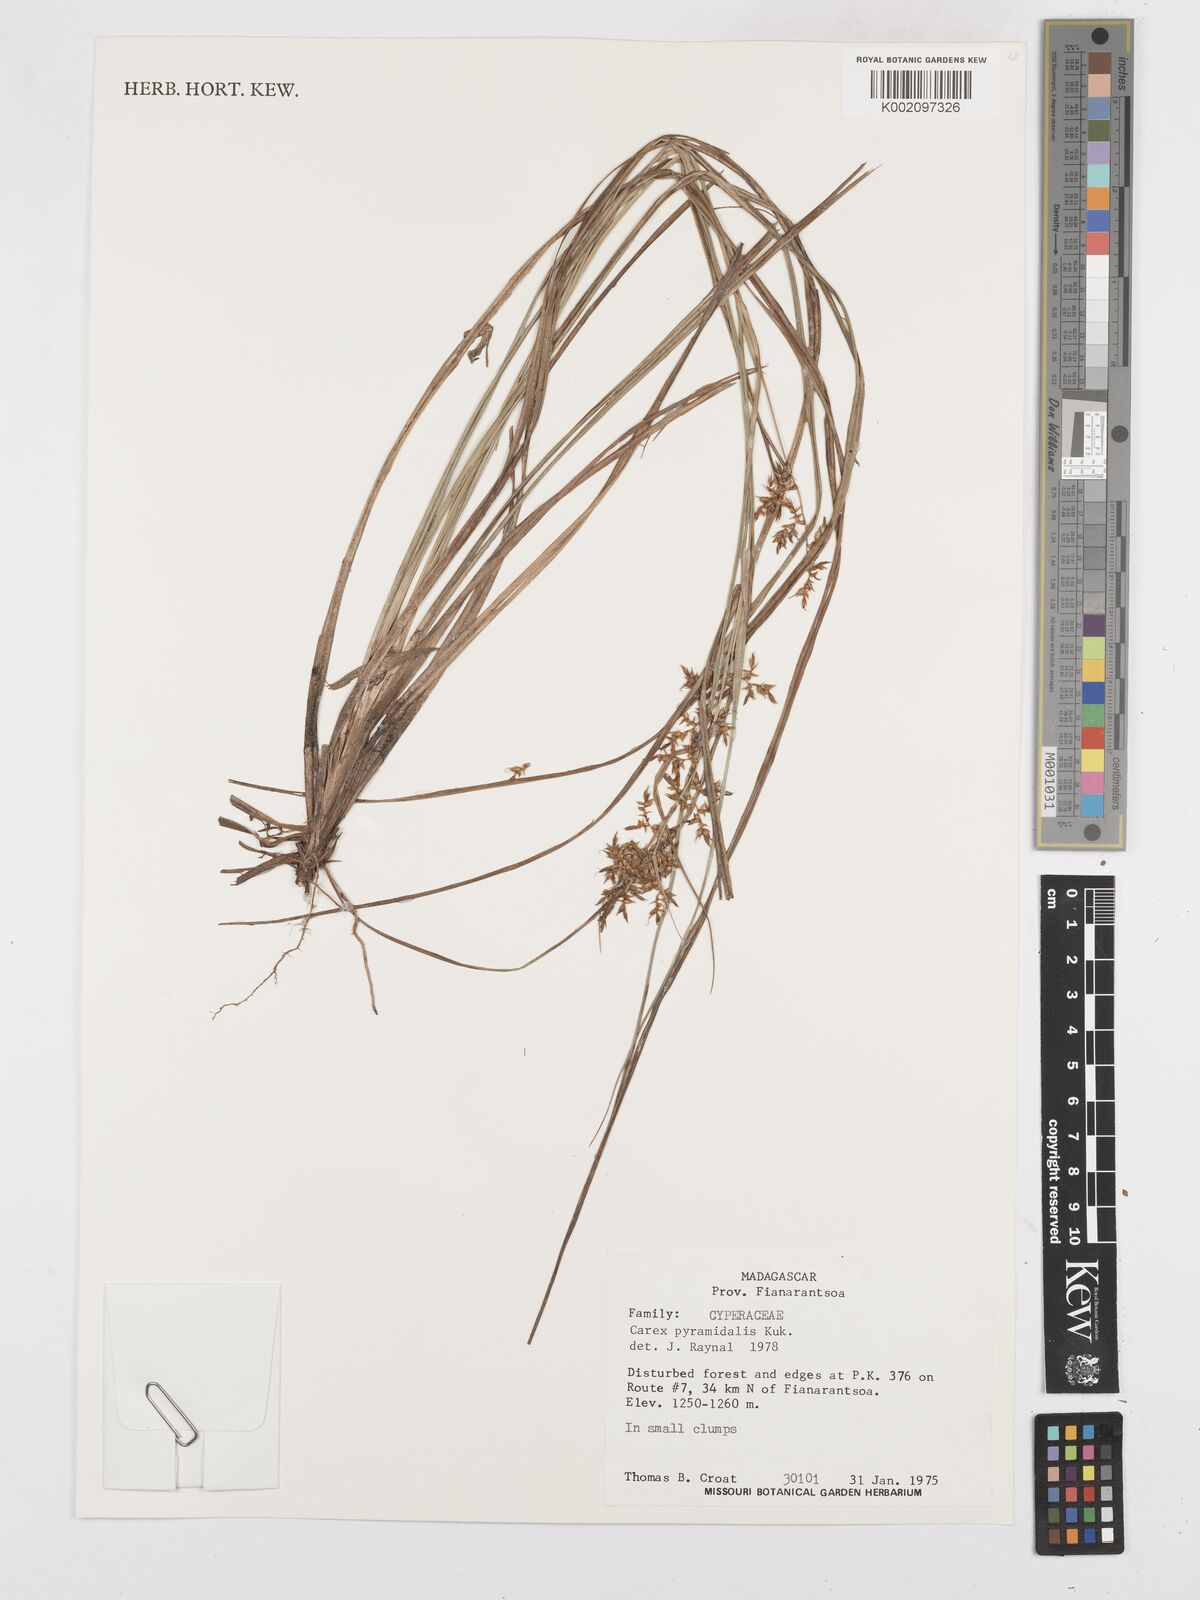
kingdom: Plantae
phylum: Tracheophyta
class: Liliopsida
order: Poales
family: Cyperaceae
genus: Carex
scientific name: Carex pyramidalis
